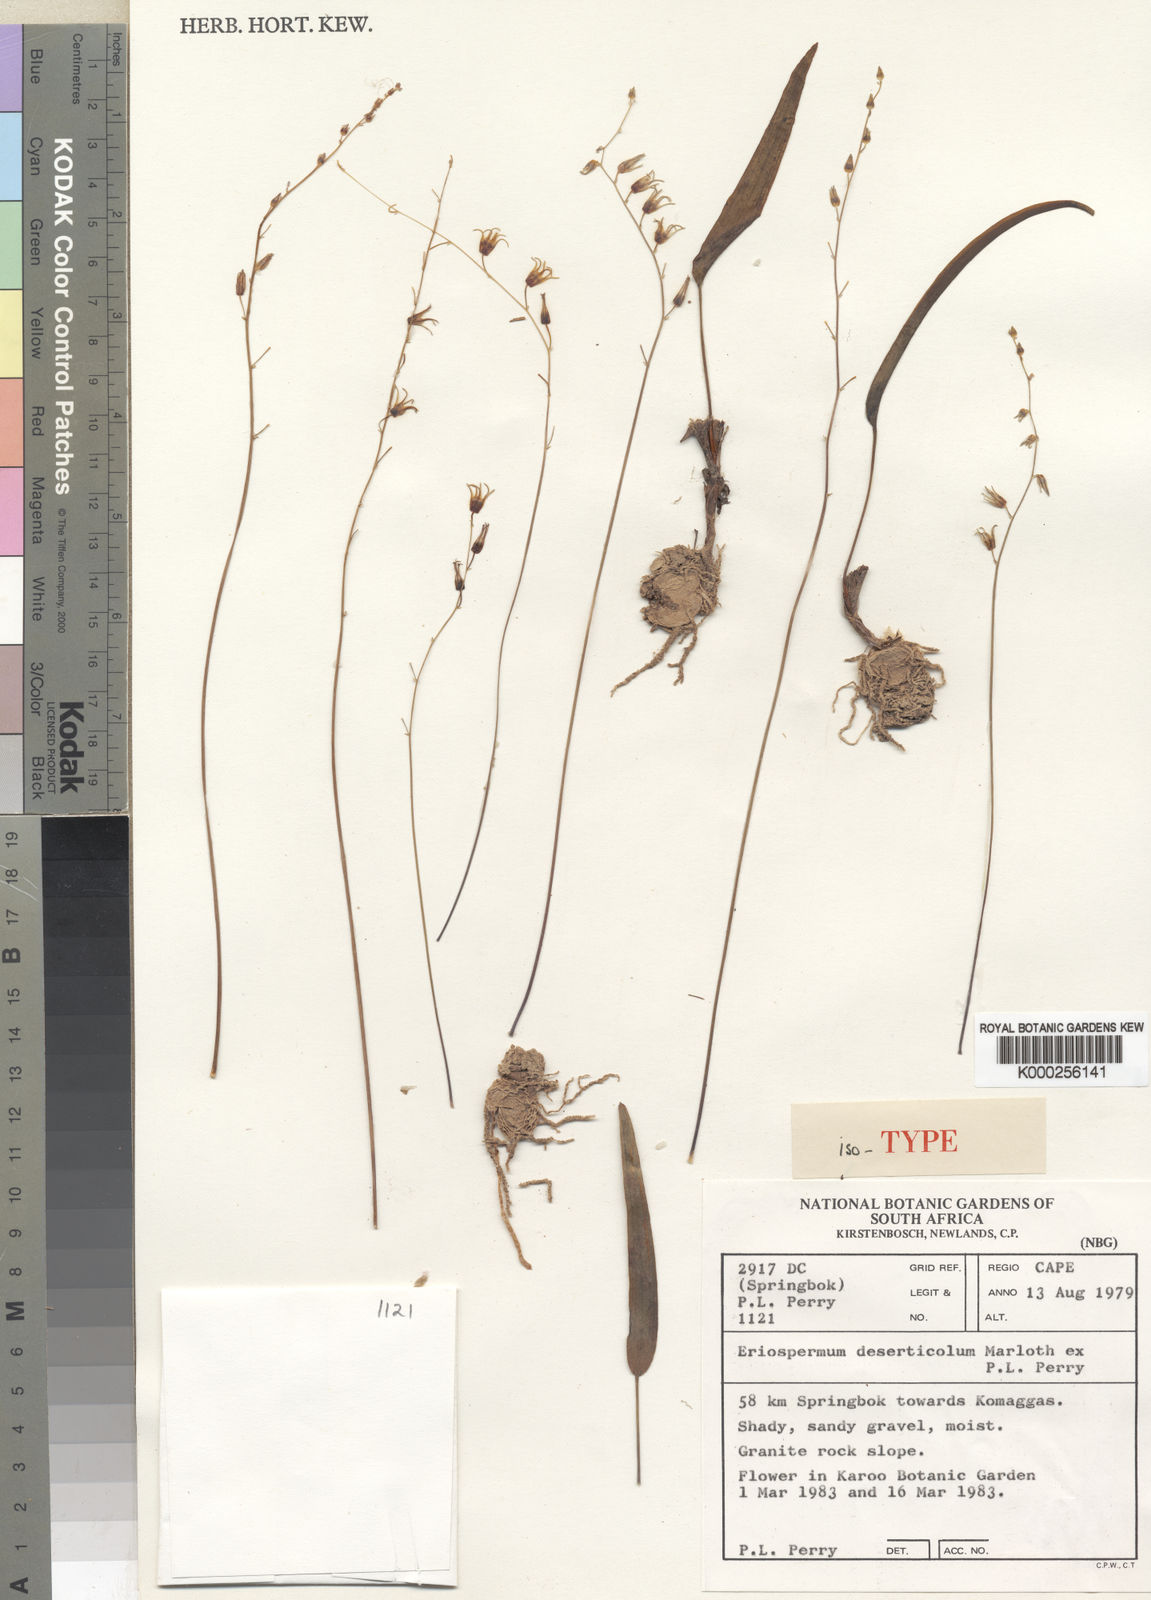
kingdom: Plantae
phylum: Tracheophyta
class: Liliopsida
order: Asparagales
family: Asparagaceae
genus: Eriospermum
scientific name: Eriospermum deserticola
